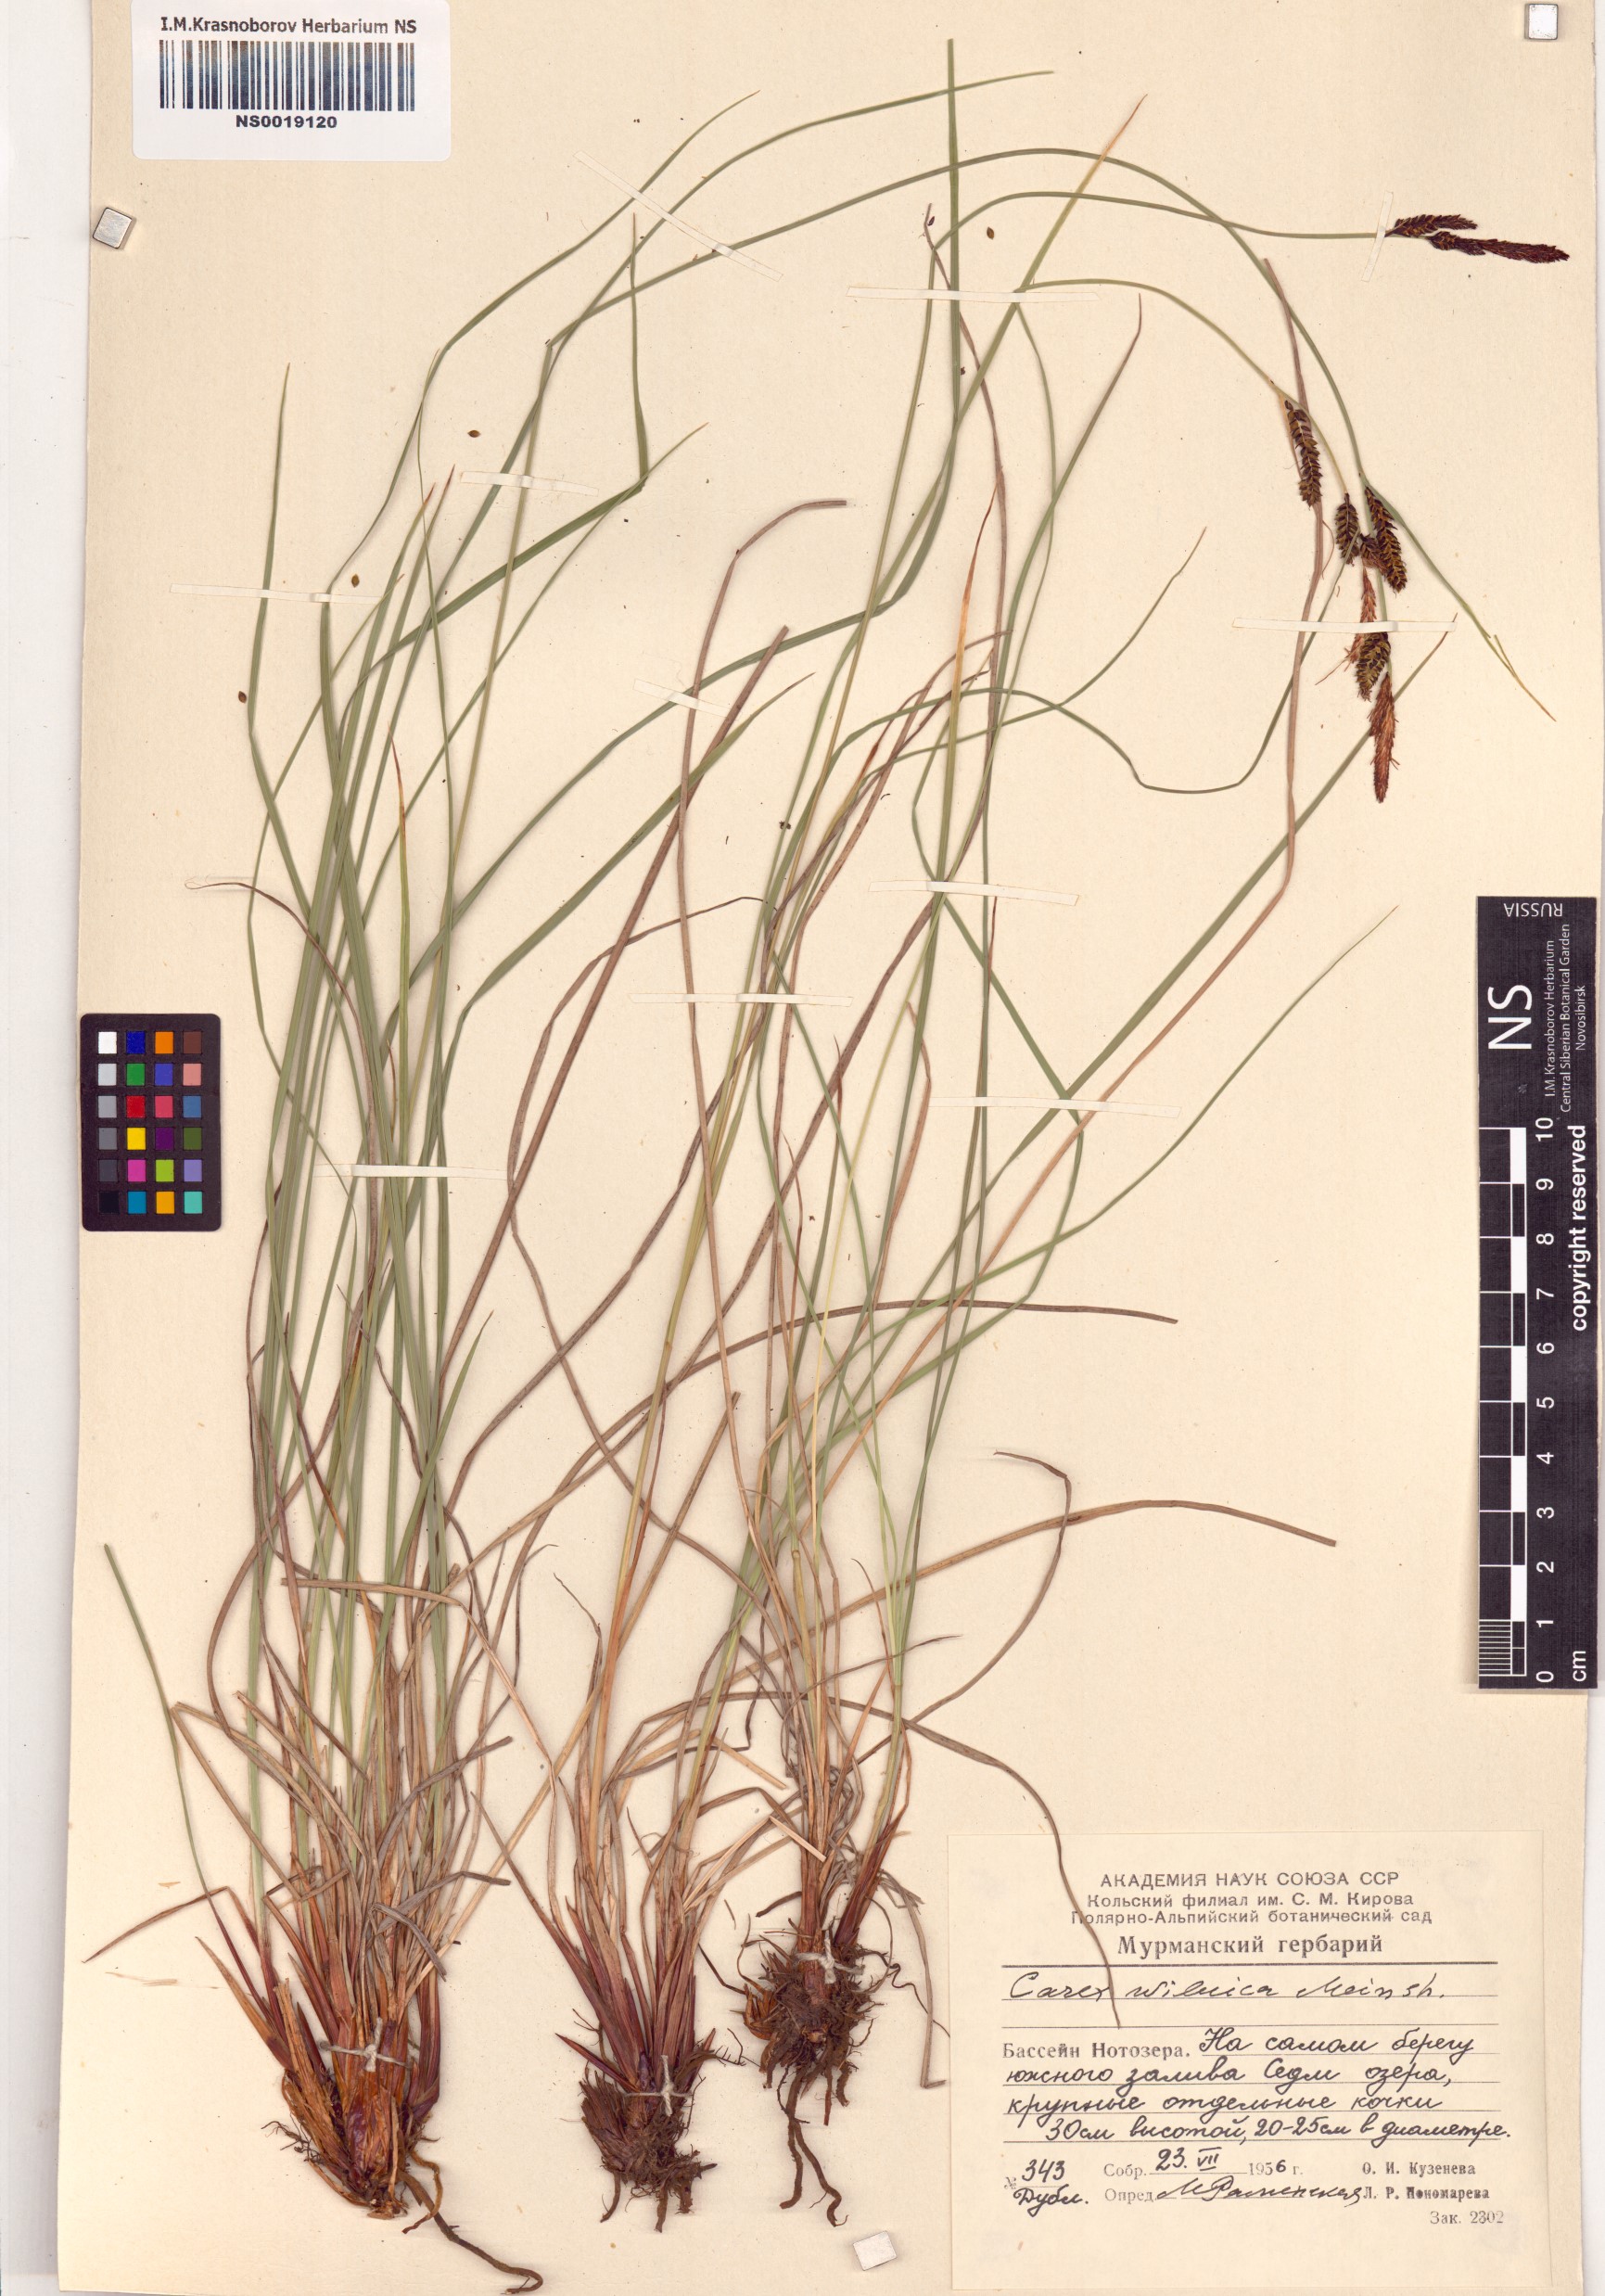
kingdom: Plantae
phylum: Tracheophyta
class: Liliopsida
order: Poales
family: Cyperaceae
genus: Carex
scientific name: Carex nigra
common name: Common sedge
